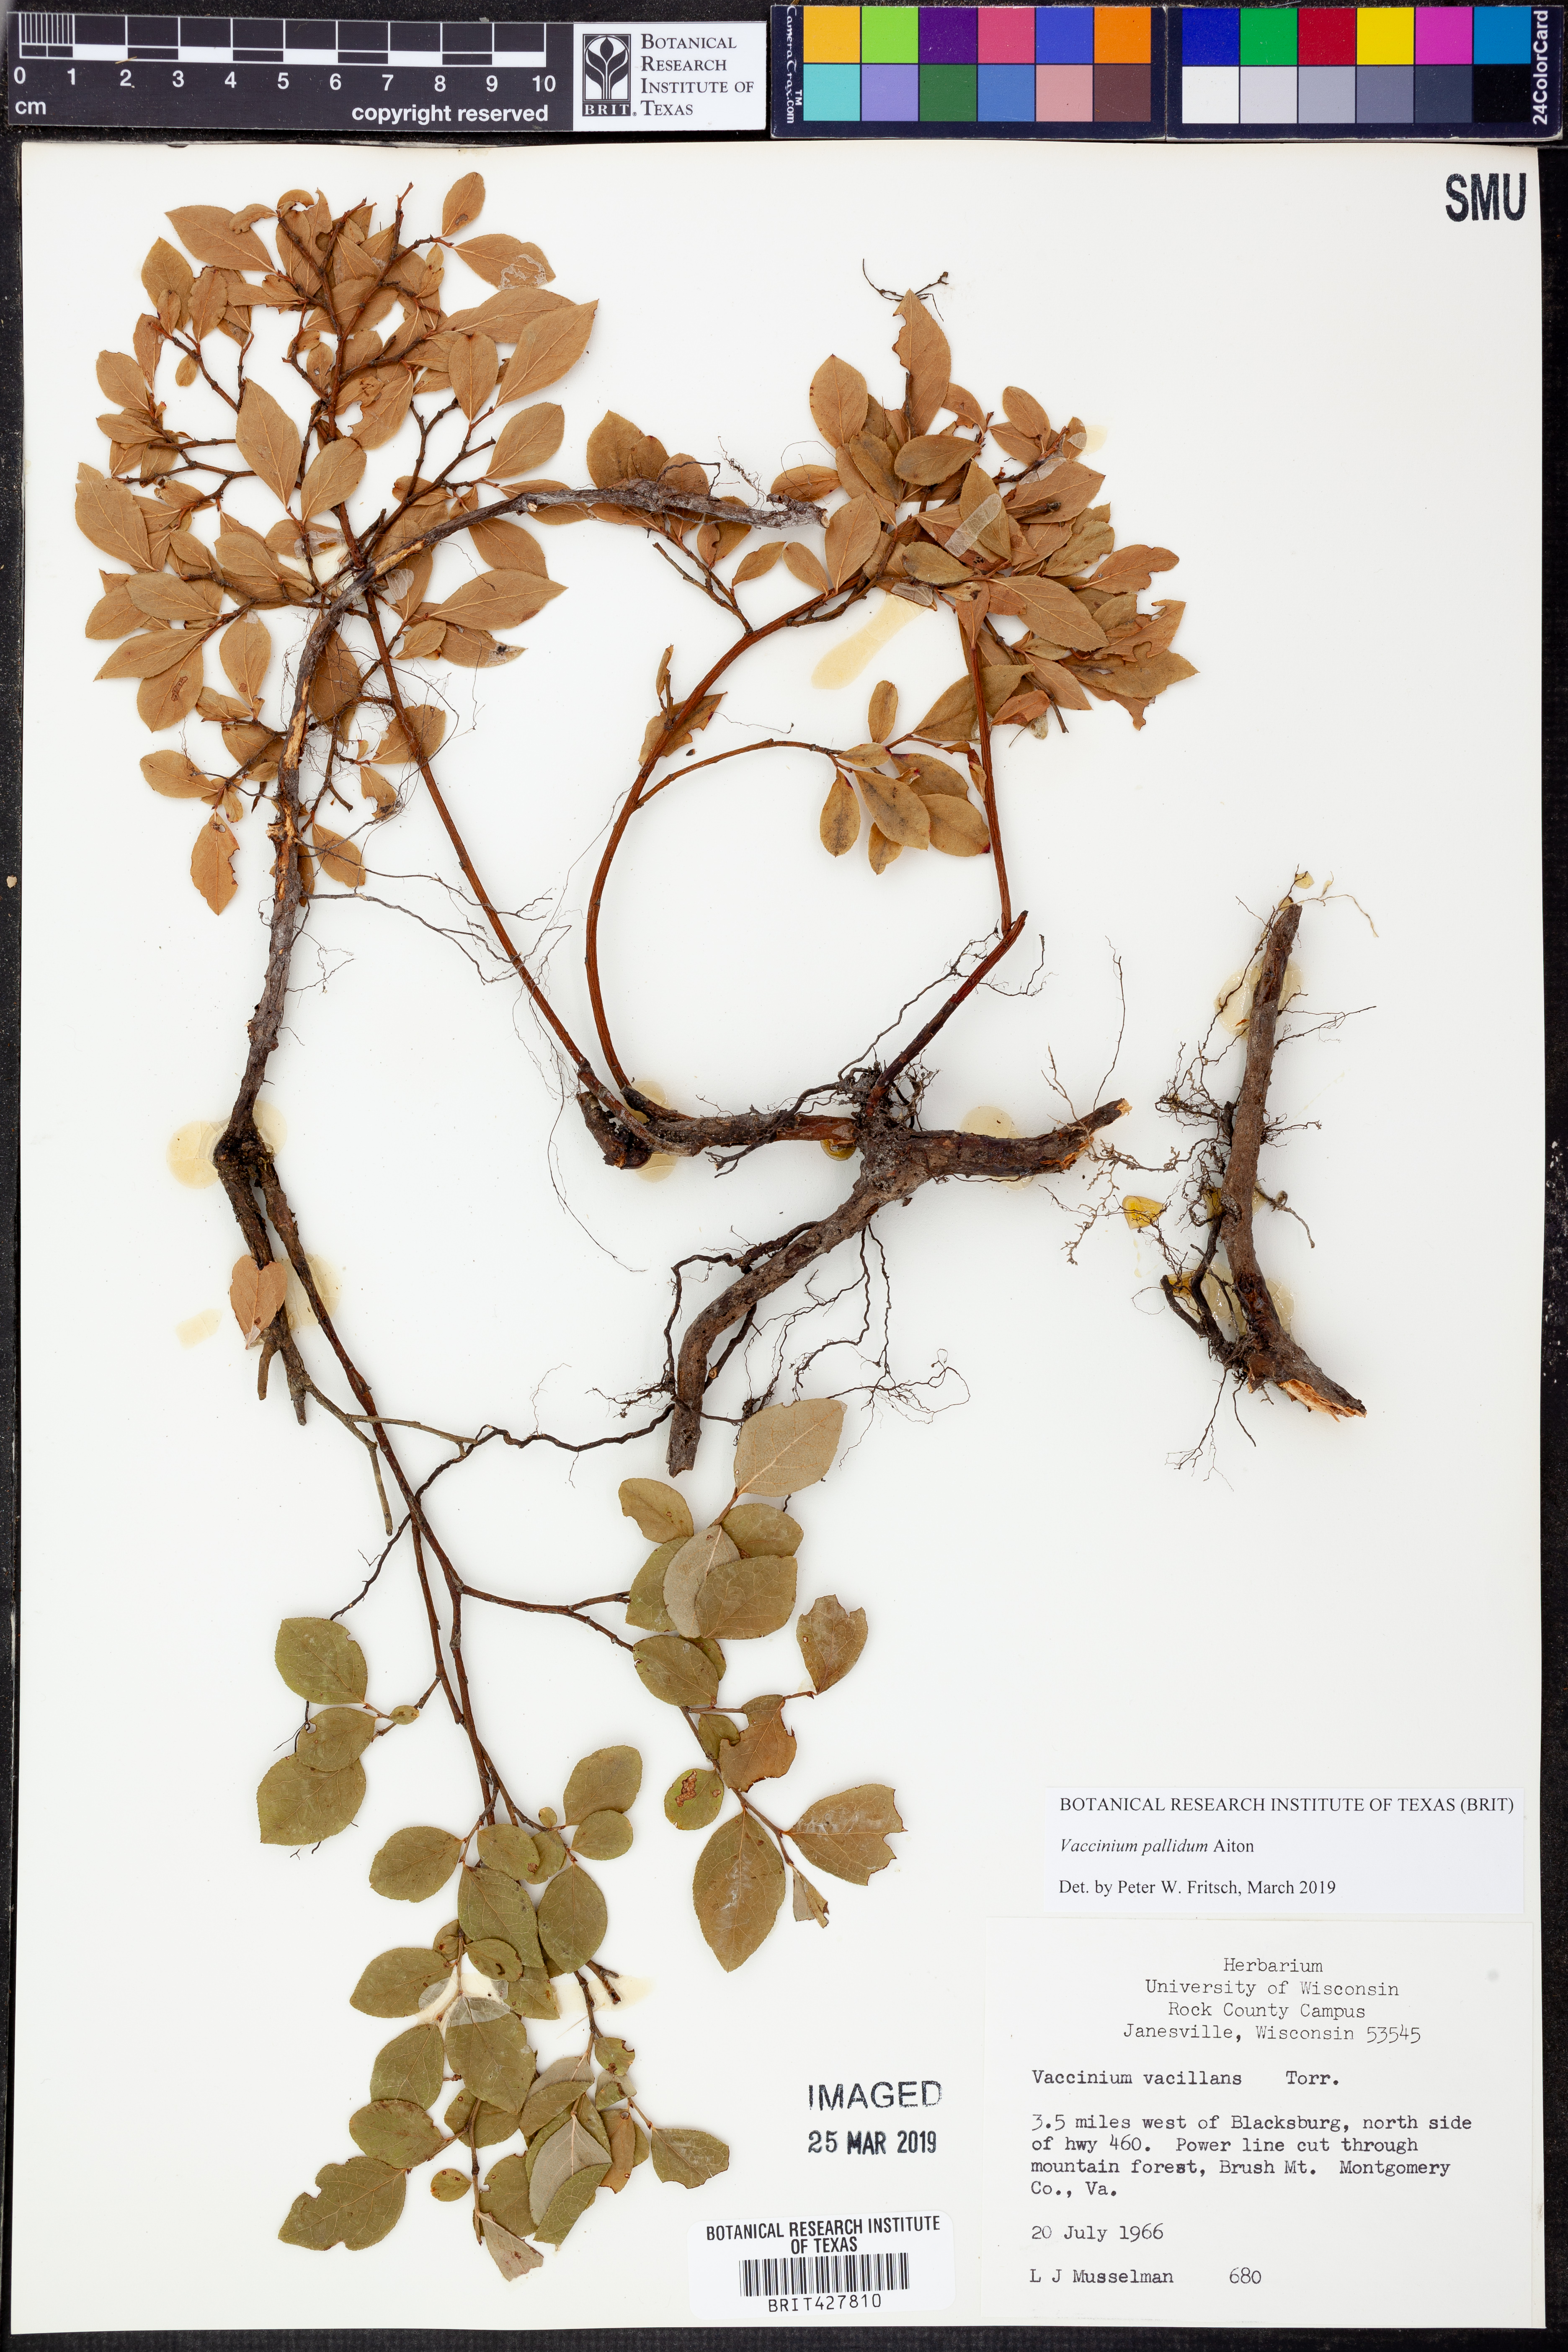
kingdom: Plantae
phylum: Tracheophyta
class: Magnoliopsida
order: Ericales
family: Ericaceae
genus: Vaccinium
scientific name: Vaccinium pallidum
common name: Blue ridge blueberry
